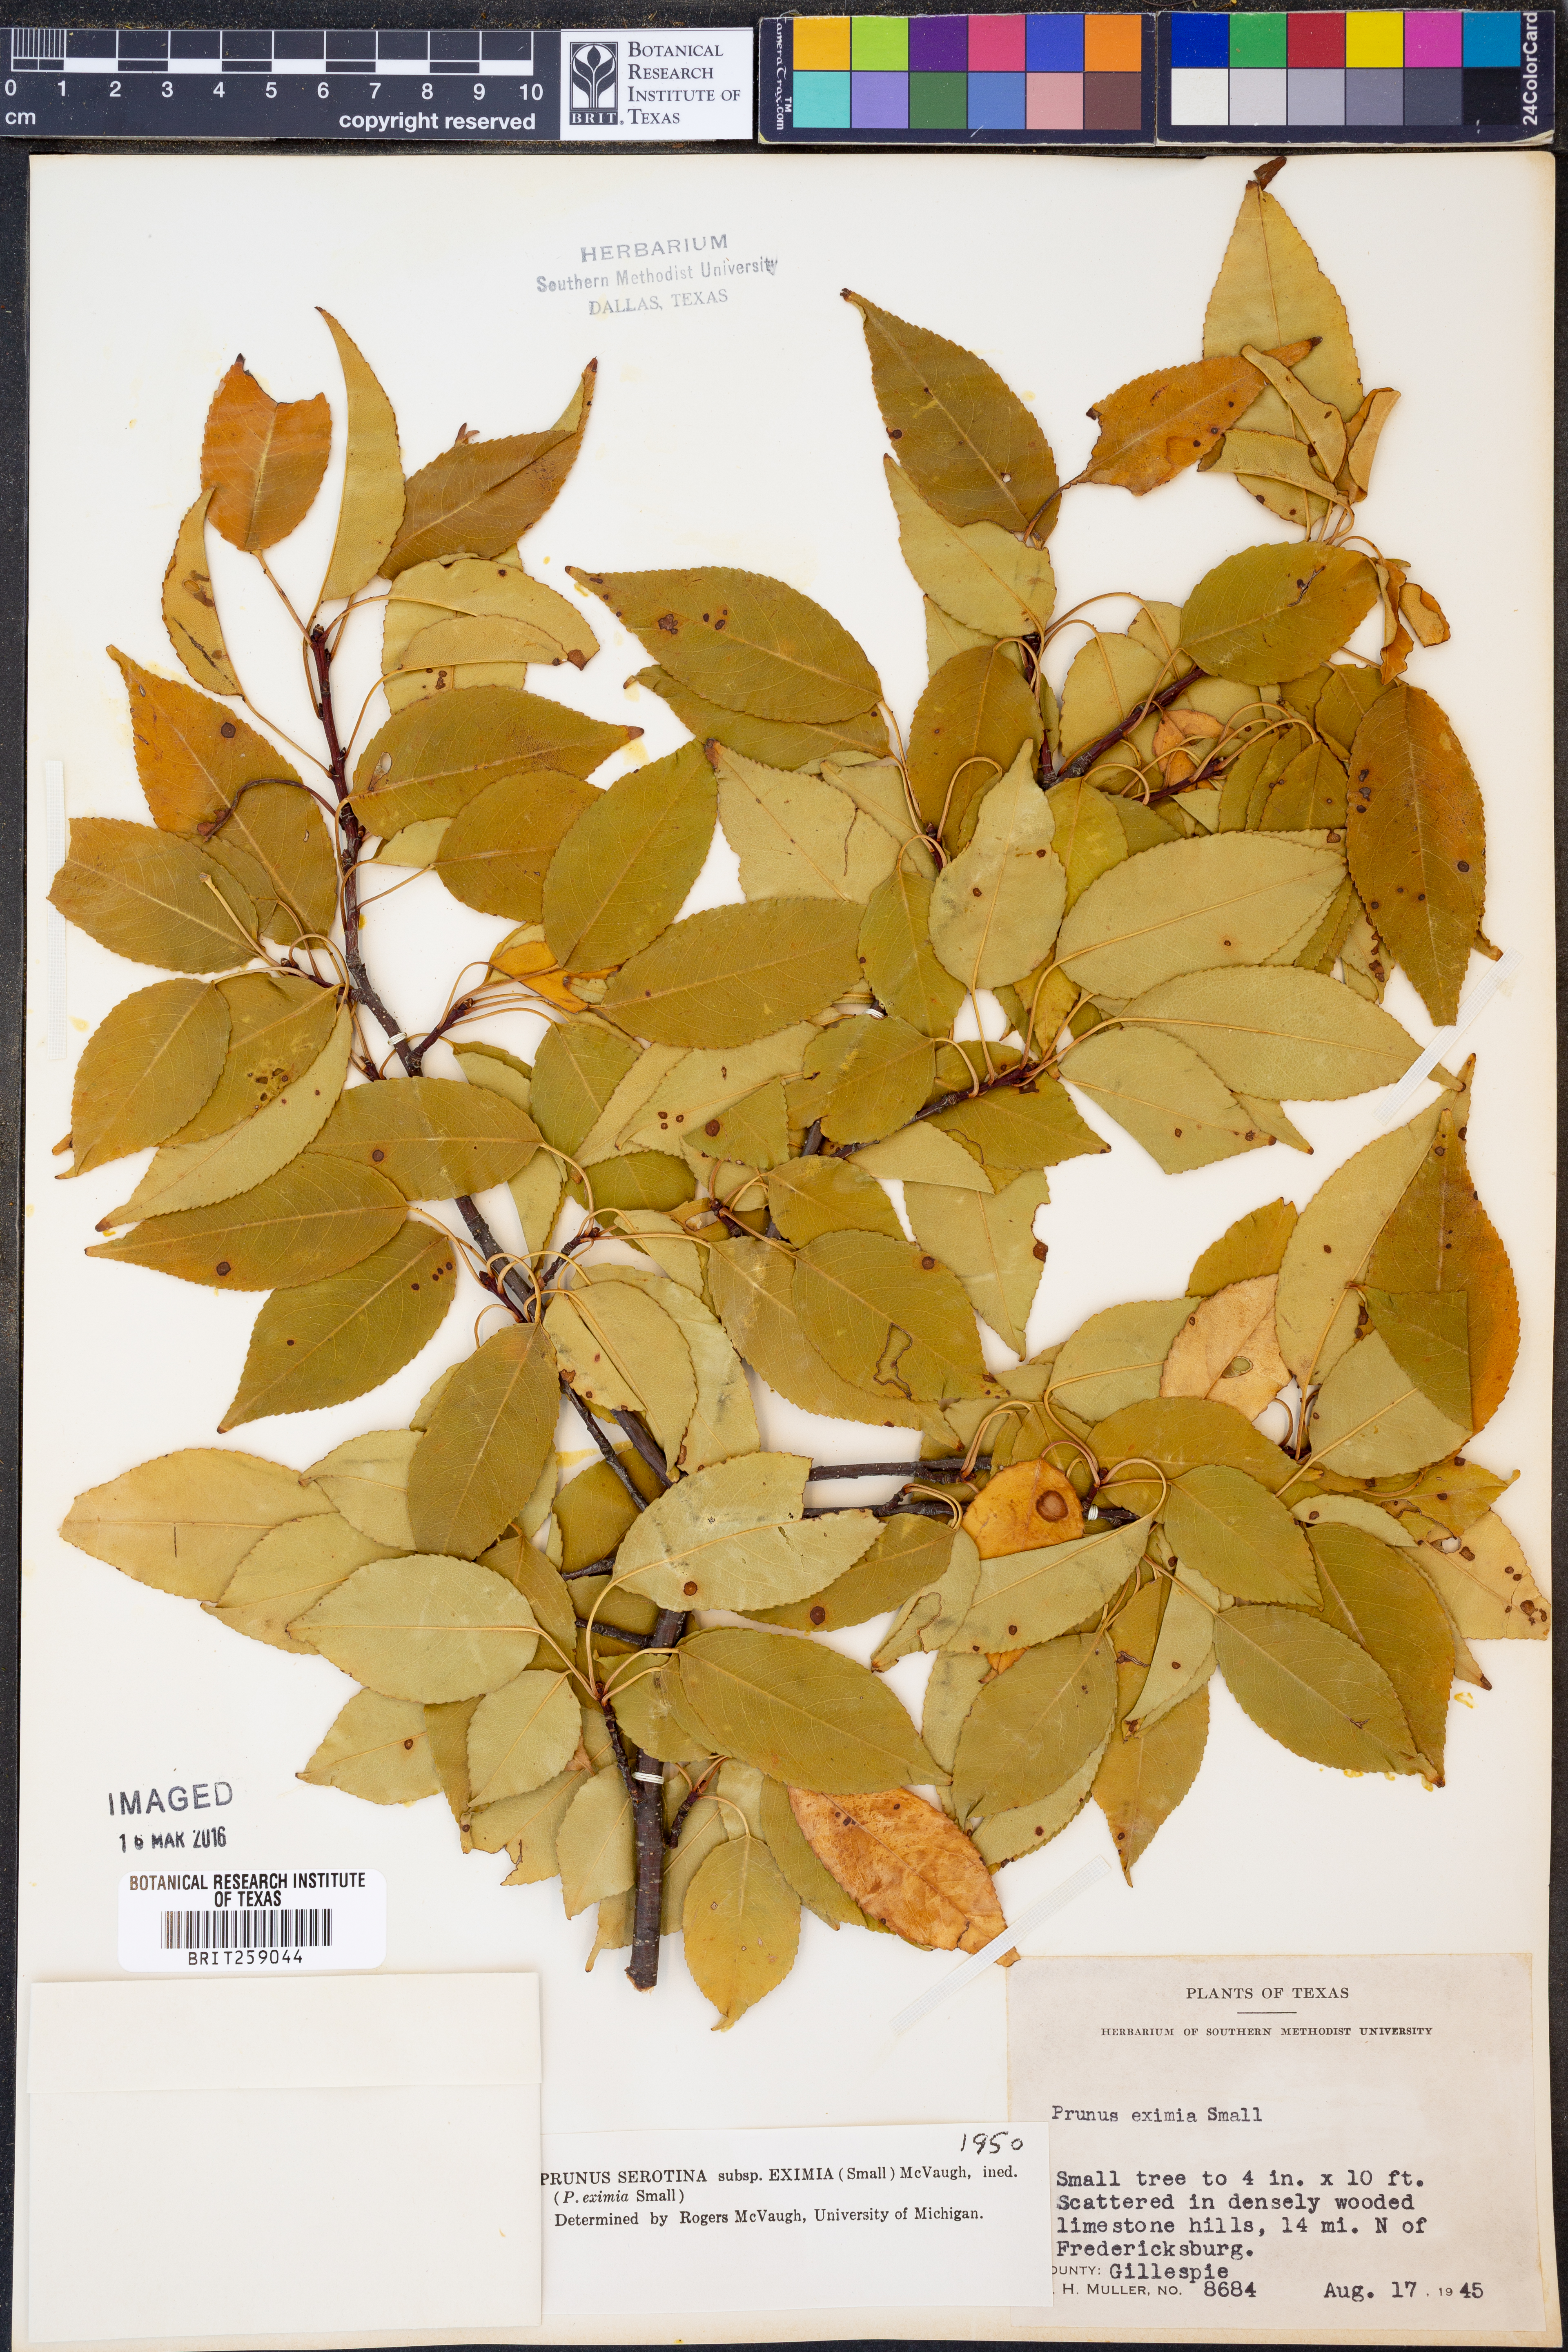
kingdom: Plantae
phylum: Tracheophyta
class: Magnoliopsida
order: Rosales
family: Rosaceae
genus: Prunus
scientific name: Prunus serotina
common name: Black cherry
